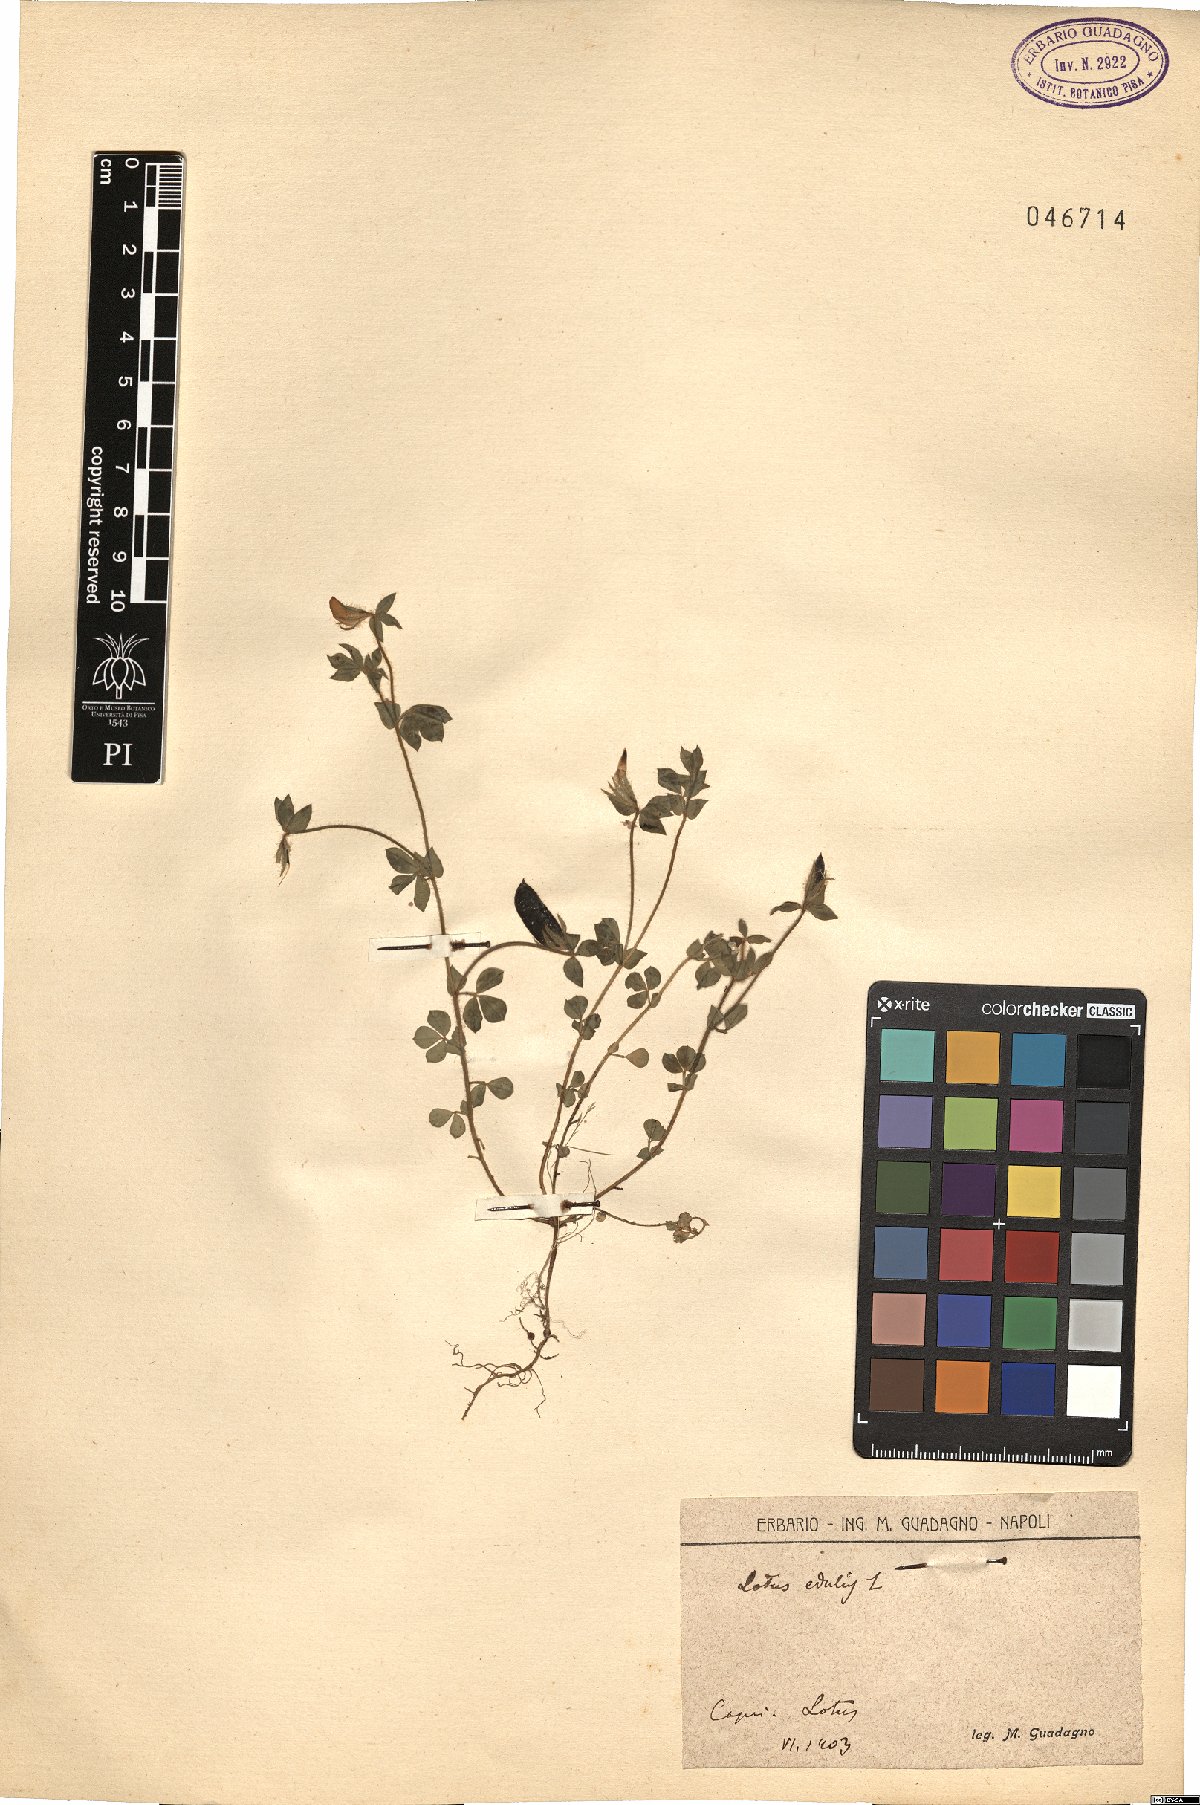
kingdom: Plantae
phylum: Tracheophyta
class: Magnoliopsida
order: Fabales
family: Fabaceae
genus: Lotus
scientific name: Lotus edulis
